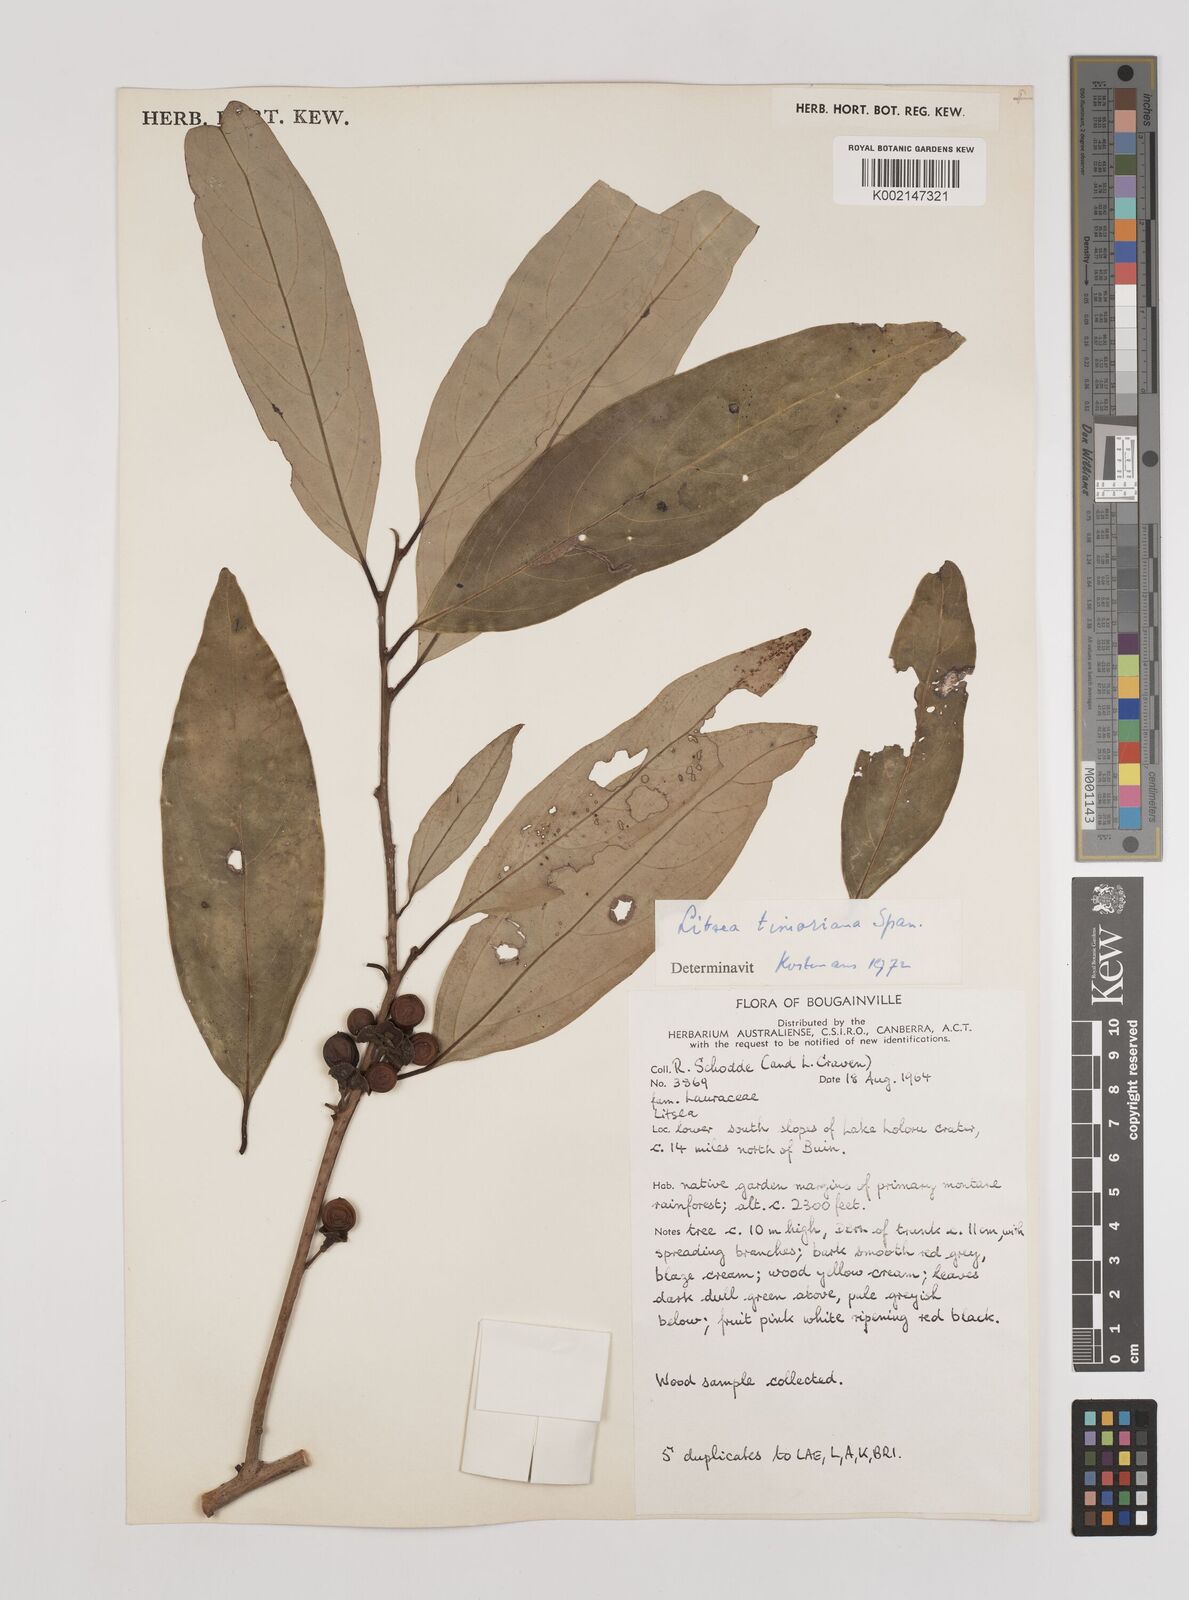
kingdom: Plantae
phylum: Tracheophyta
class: Magnoliopsida
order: Laurales
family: Lauraceae
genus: Litsea
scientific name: Litsea timoriana
